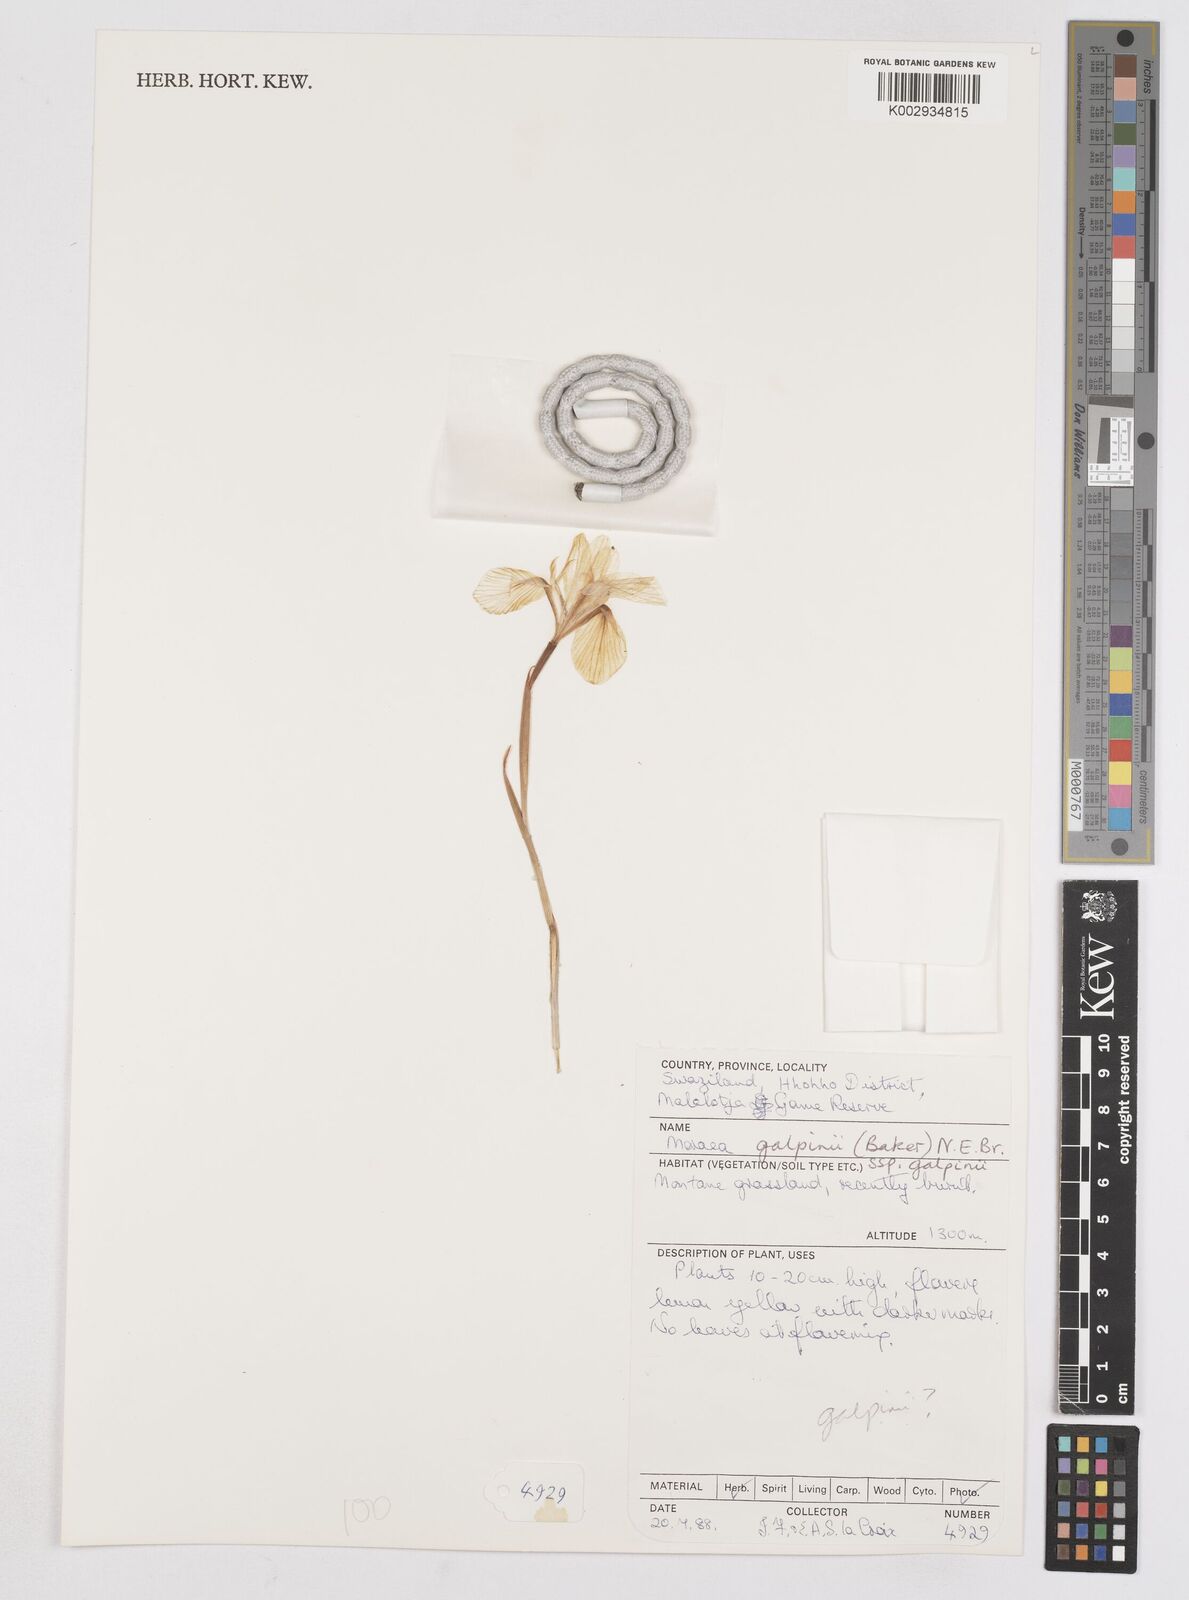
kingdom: Plantae
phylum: Tracheophyta
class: Liliopsida
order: Asparagales
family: Iridaceae
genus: Moraea
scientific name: Moraea galpinii
